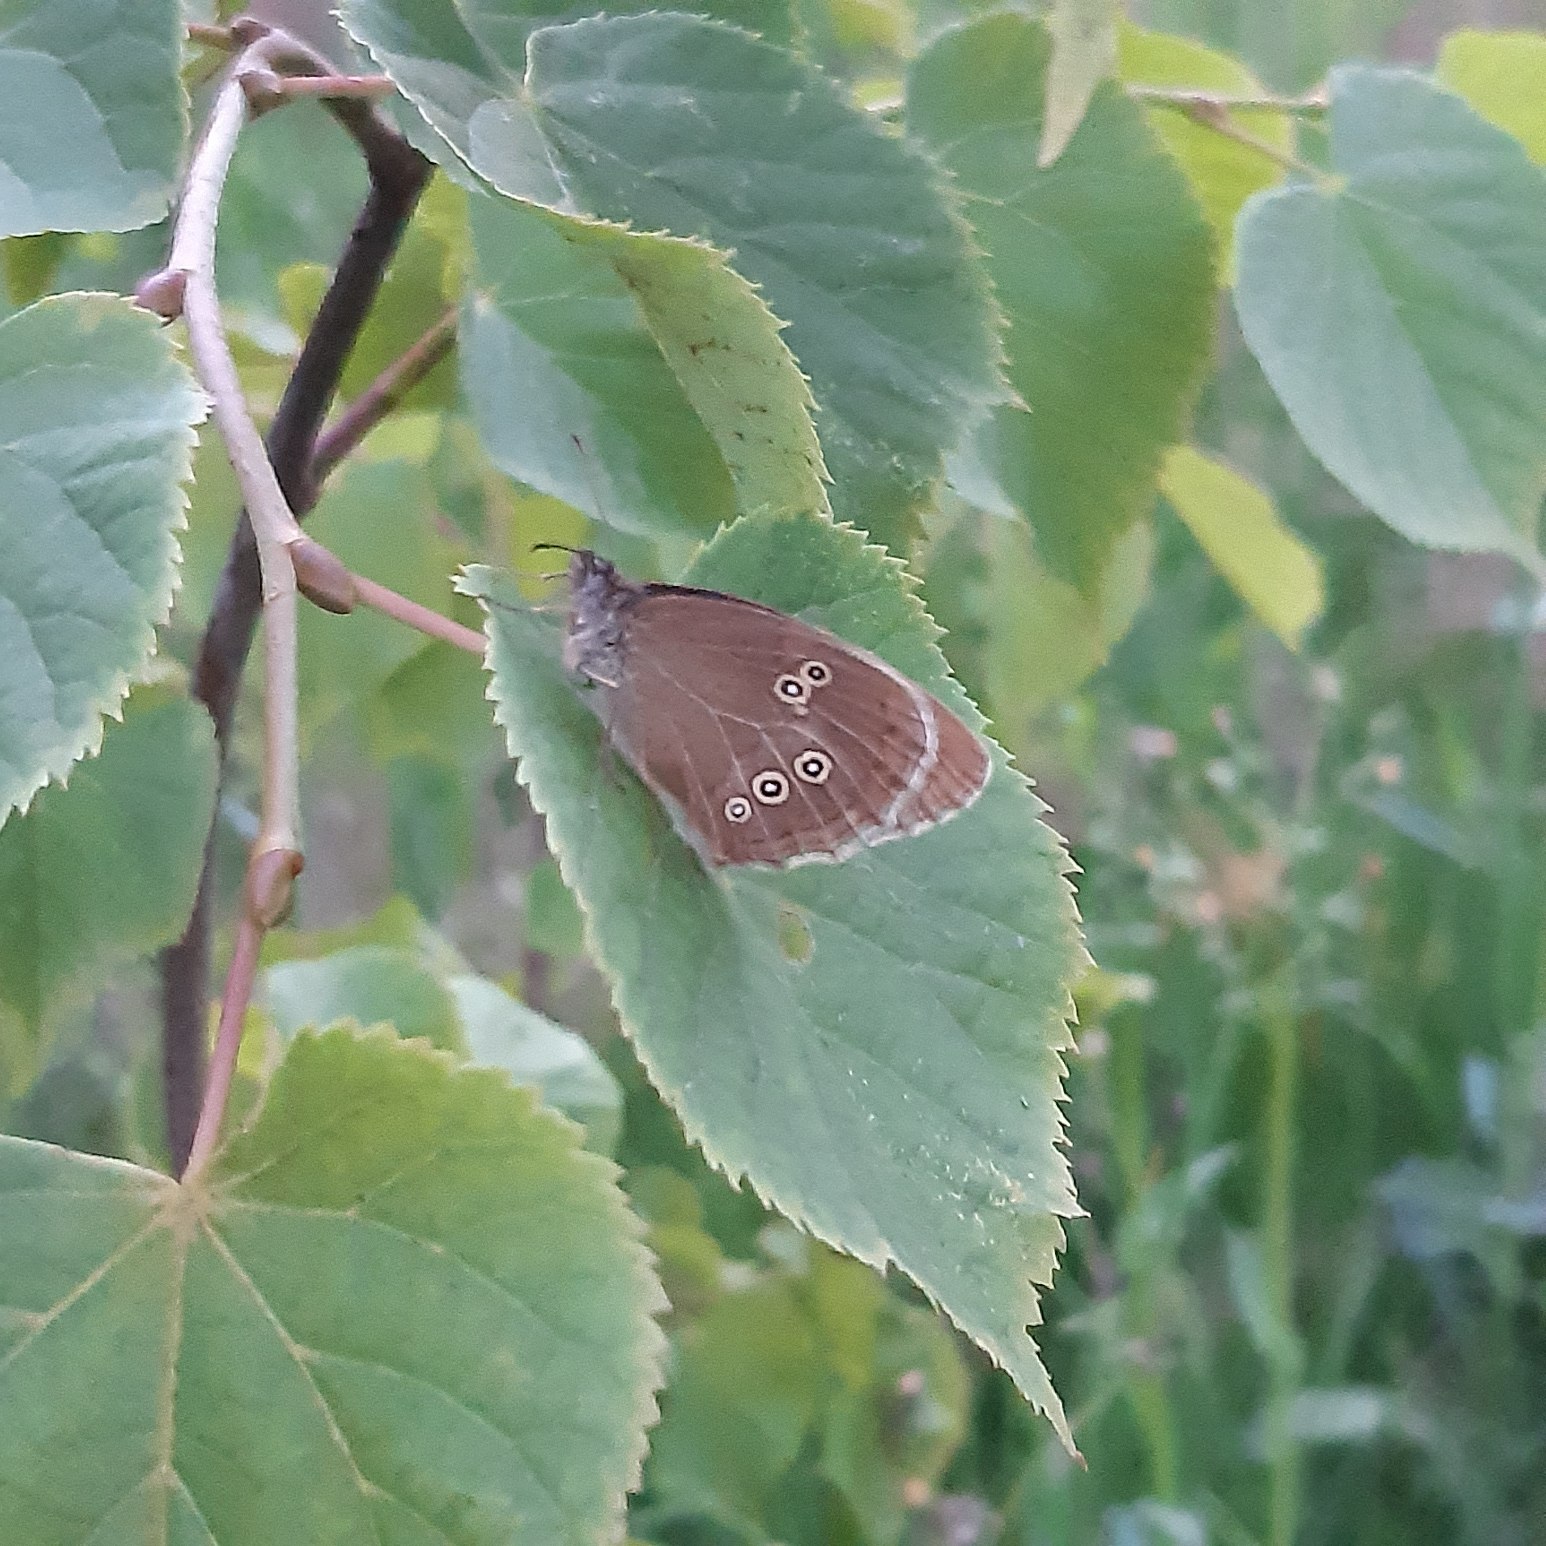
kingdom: Animalia
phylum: Arthropoda
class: Insecta
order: Lepidoptera
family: Nymphalidae
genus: Aphantopus
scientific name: Aphantopus hyperantus
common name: Engrandøje
